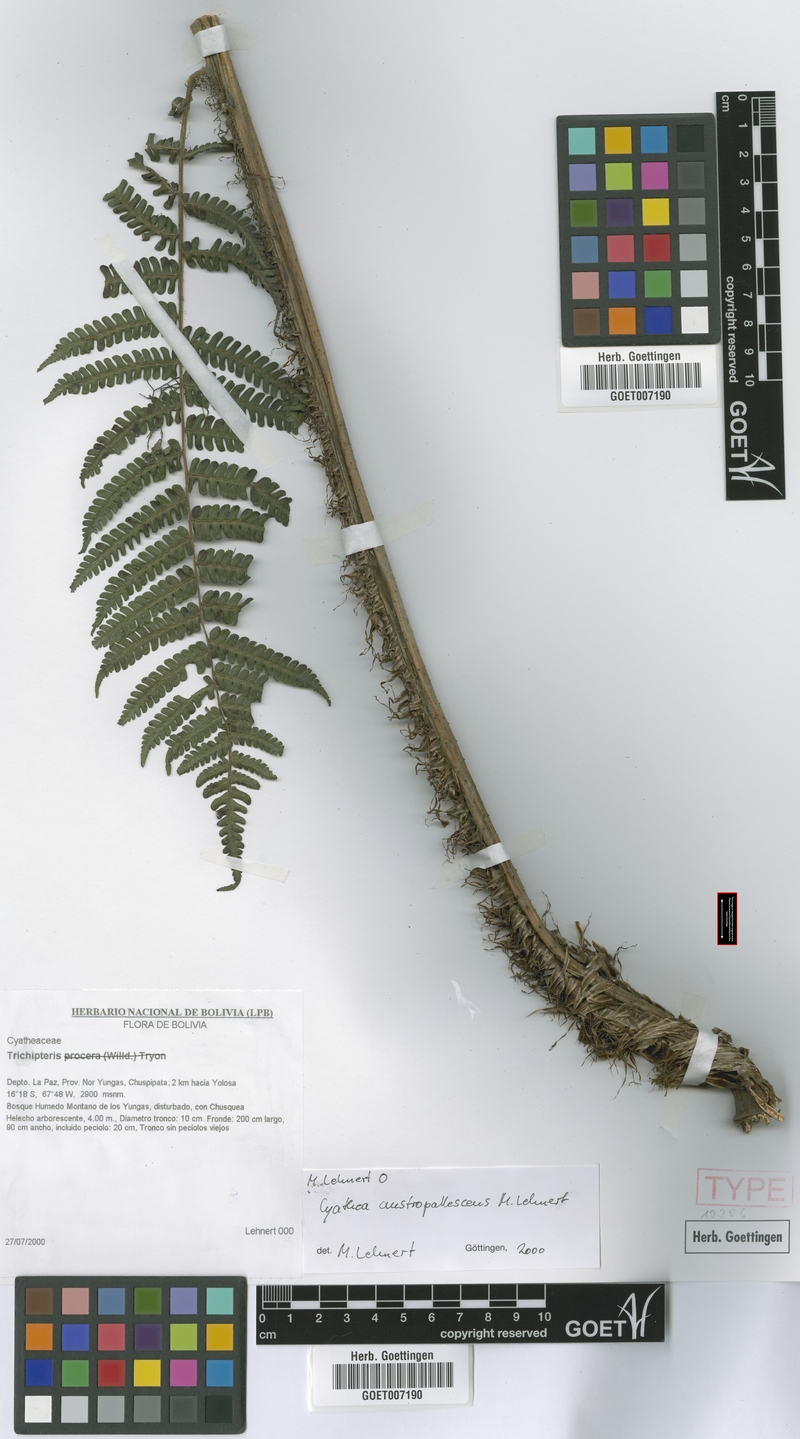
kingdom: Plantae
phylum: Tracheophyta
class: Polypodiopsida
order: Cyatheales
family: Cyatheaceae
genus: Cyathea
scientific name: Cyathea austropallescens
